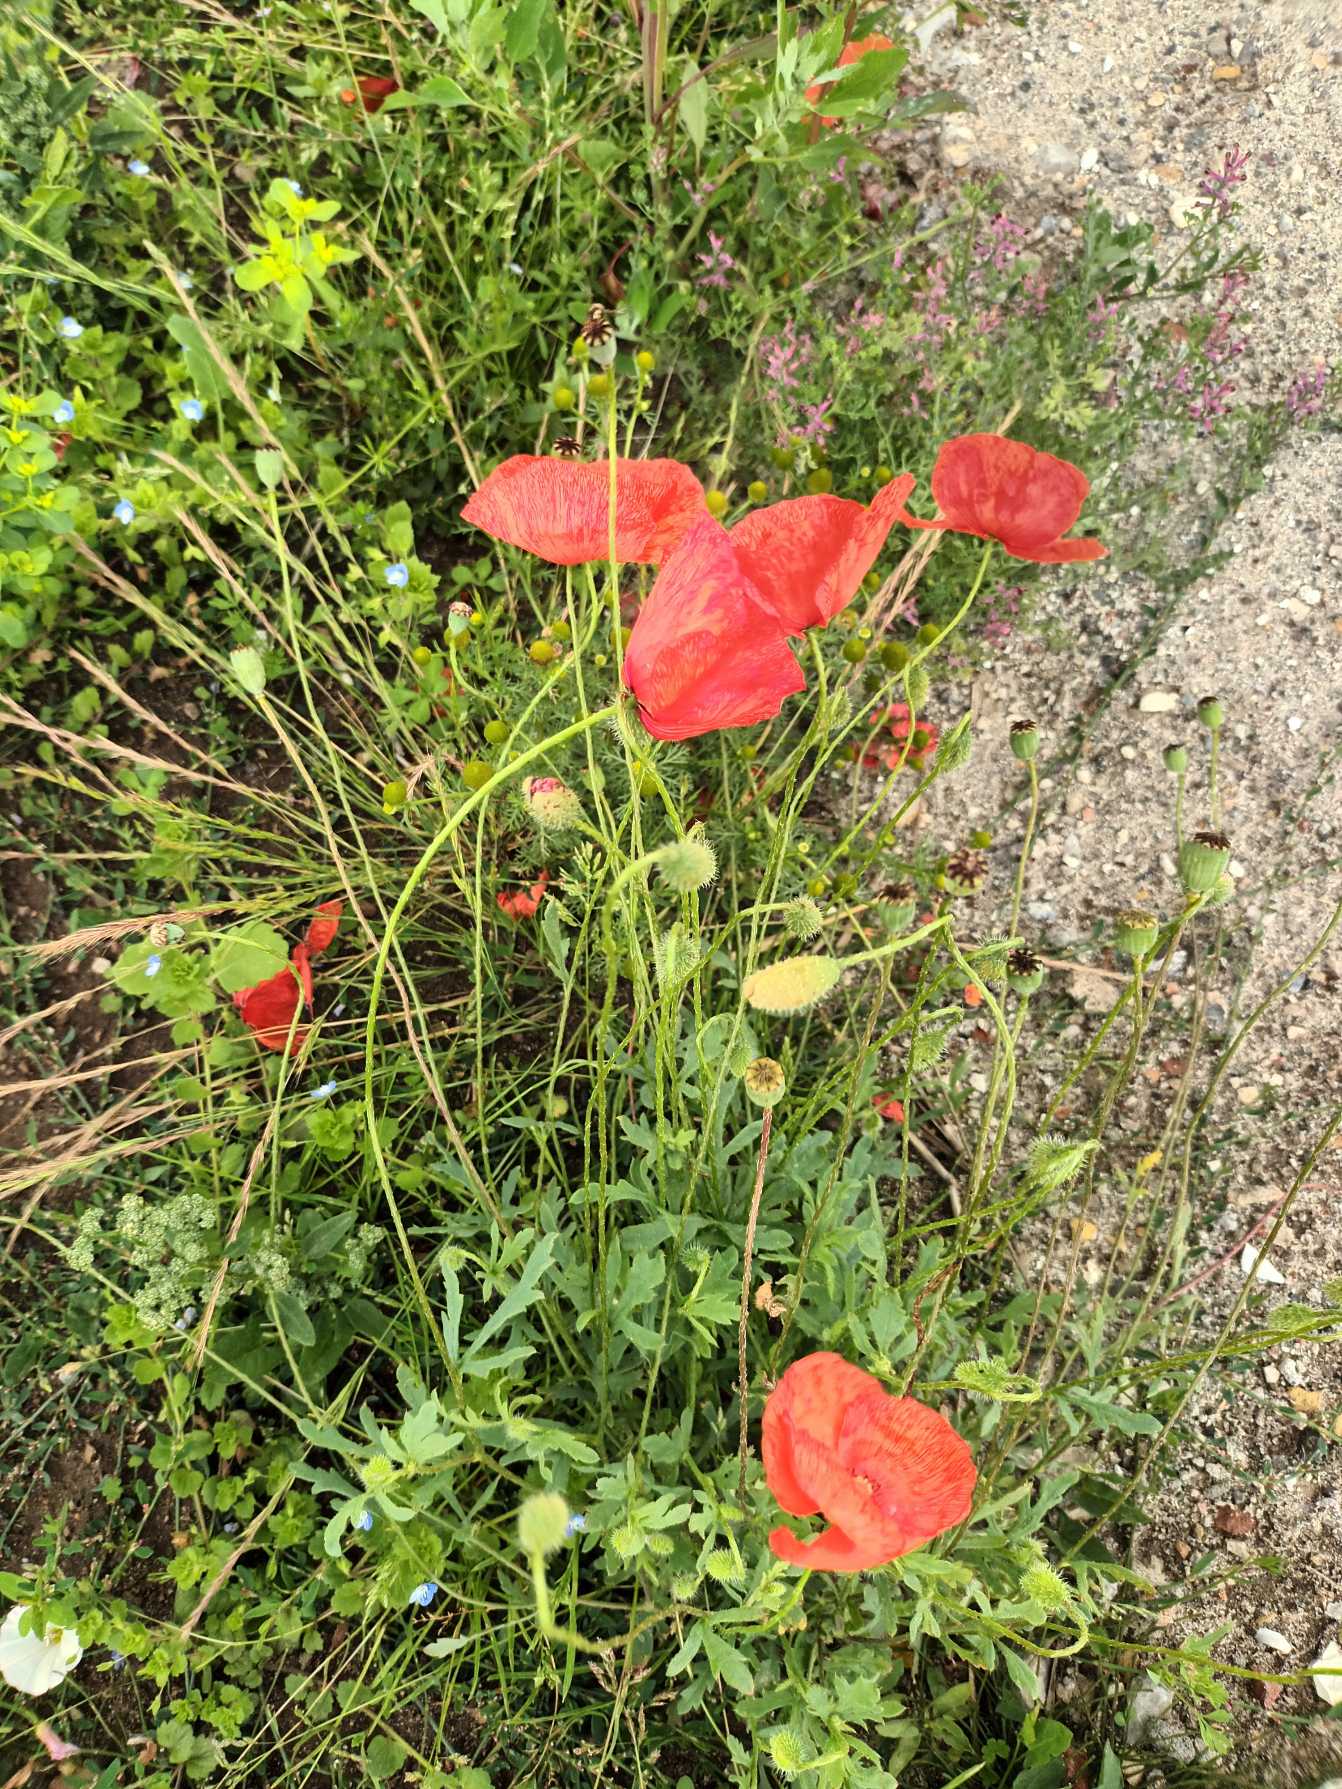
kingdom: Plantae
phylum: Tracheophyta
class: Magnoliopsida
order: Ranunculales
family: Papaveraceae
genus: Papaver
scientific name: Papaver rhoeas
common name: Korn-valmue
